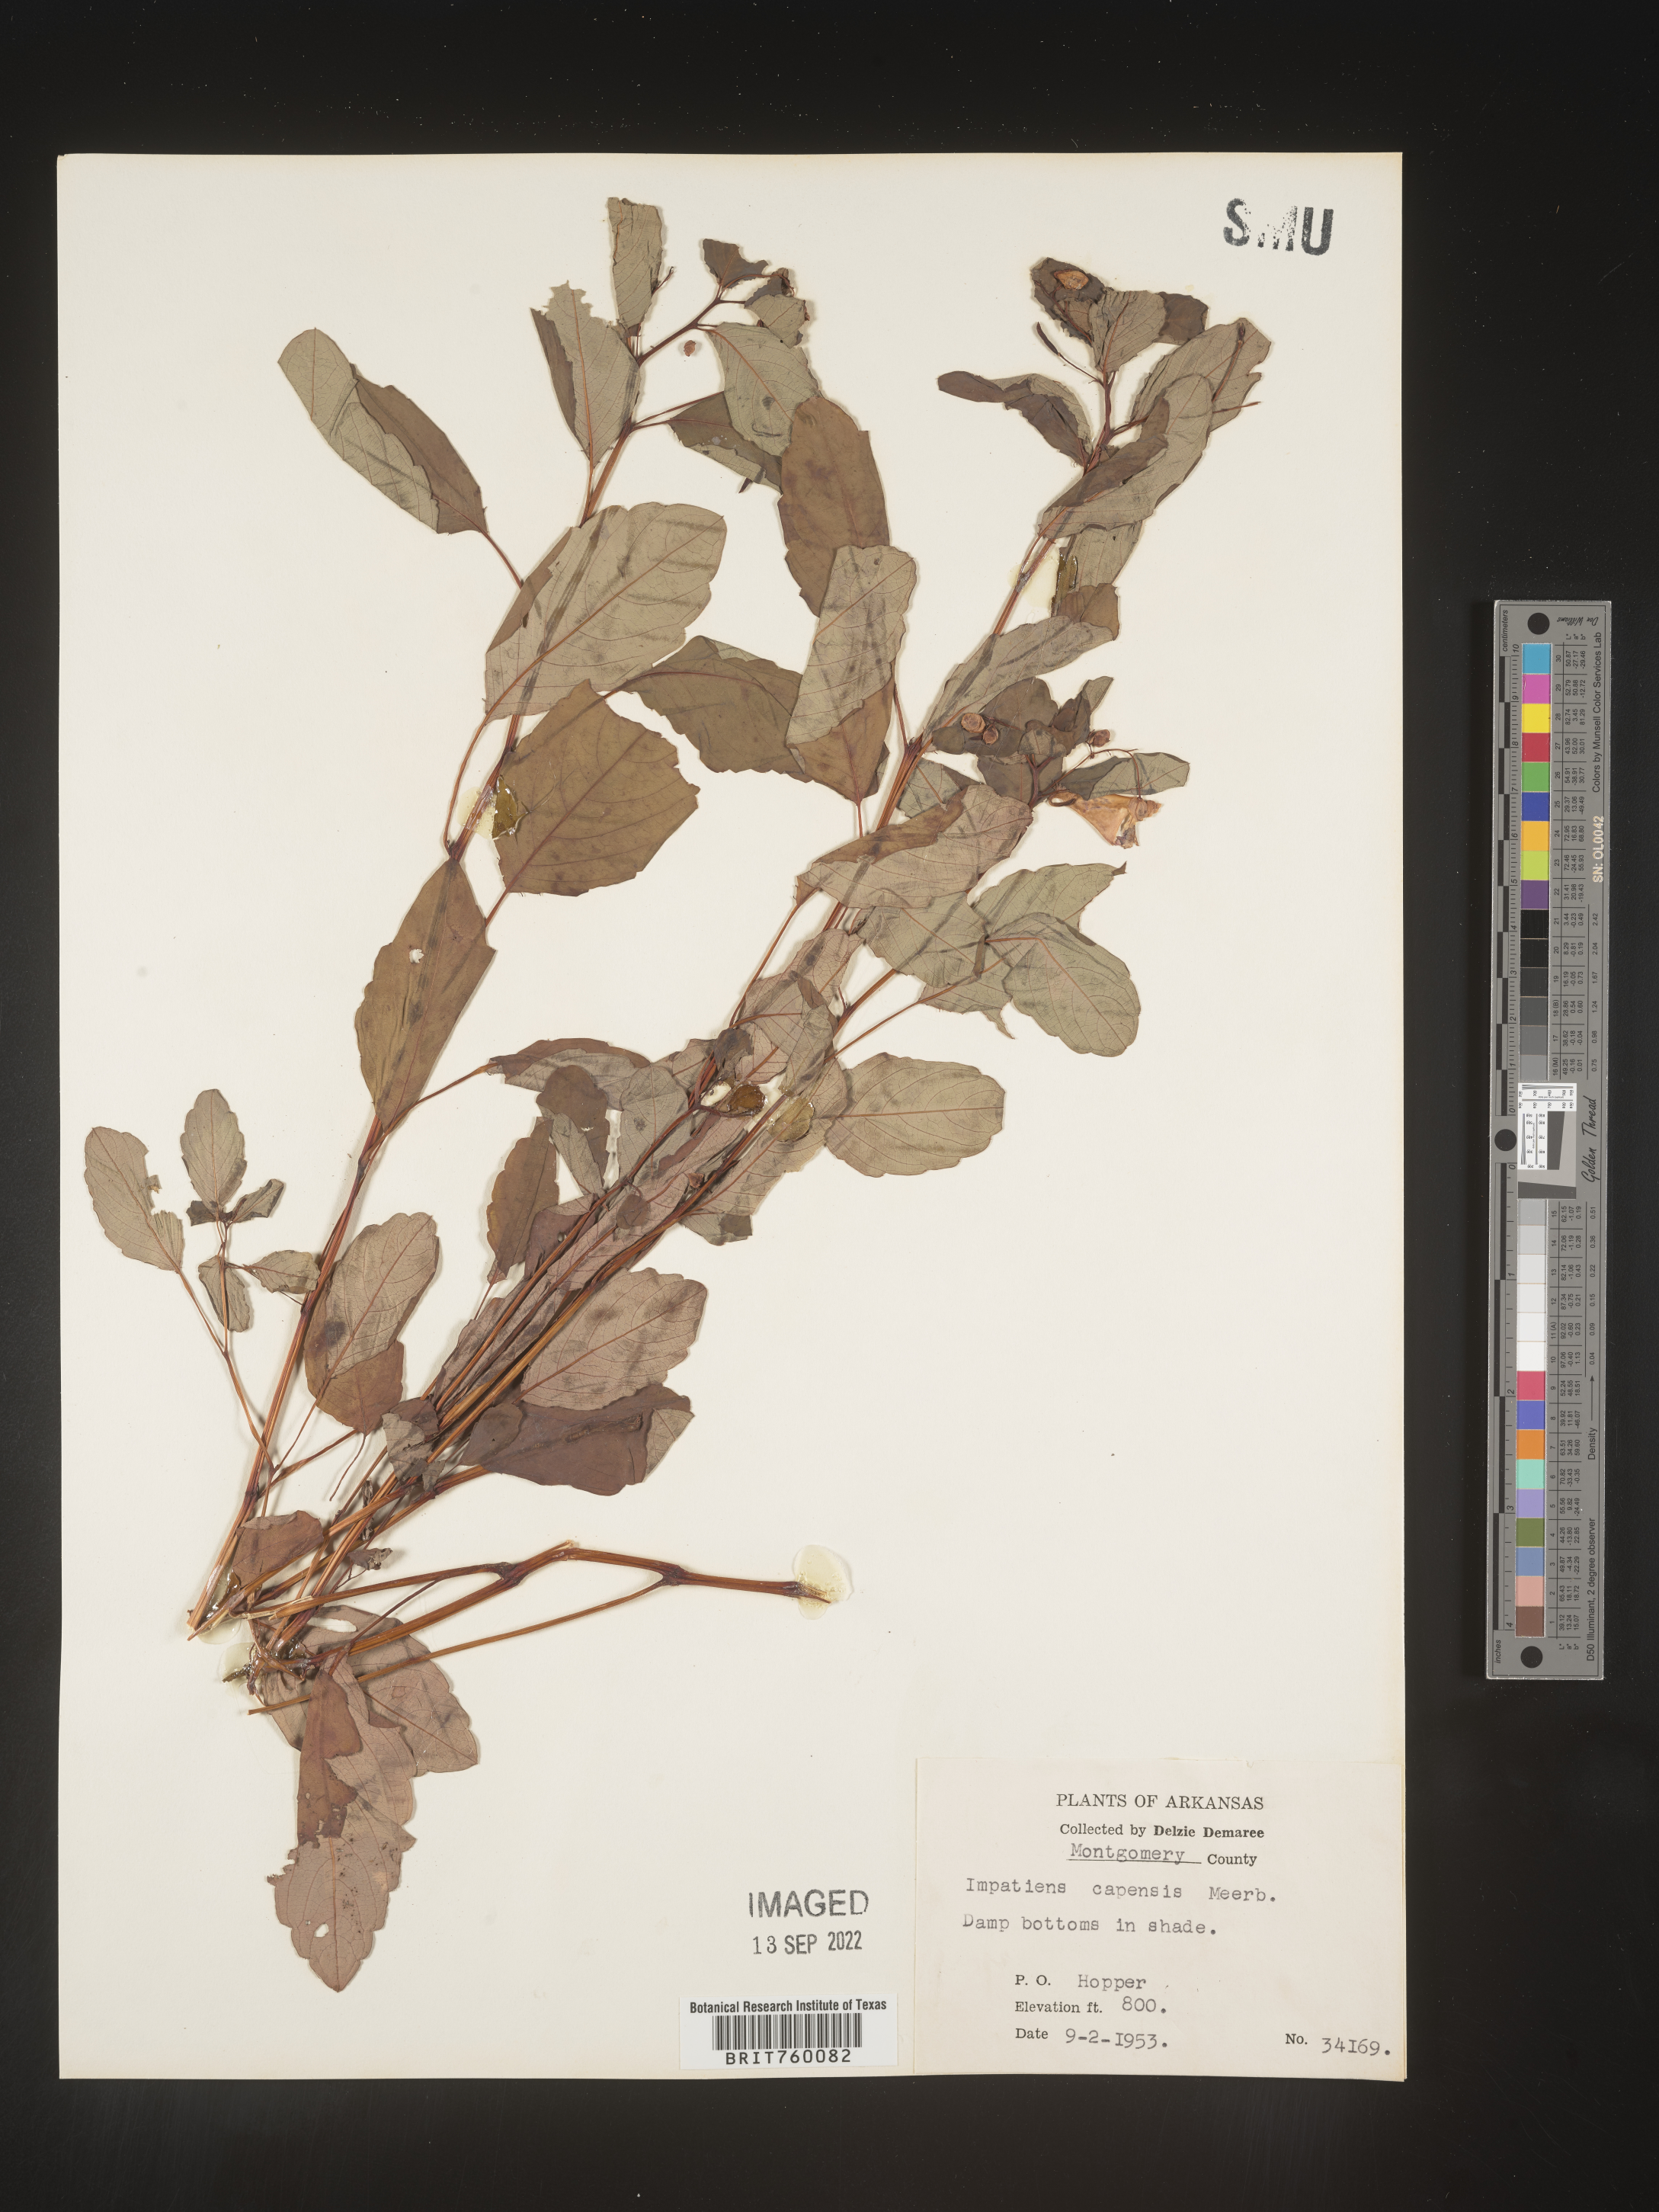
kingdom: Plantae
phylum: Tracheophyta
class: Magnoliopsida
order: Ericales
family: Balsaminaceae
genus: Impatiens
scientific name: Impatiens capensis
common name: Orange balsam
